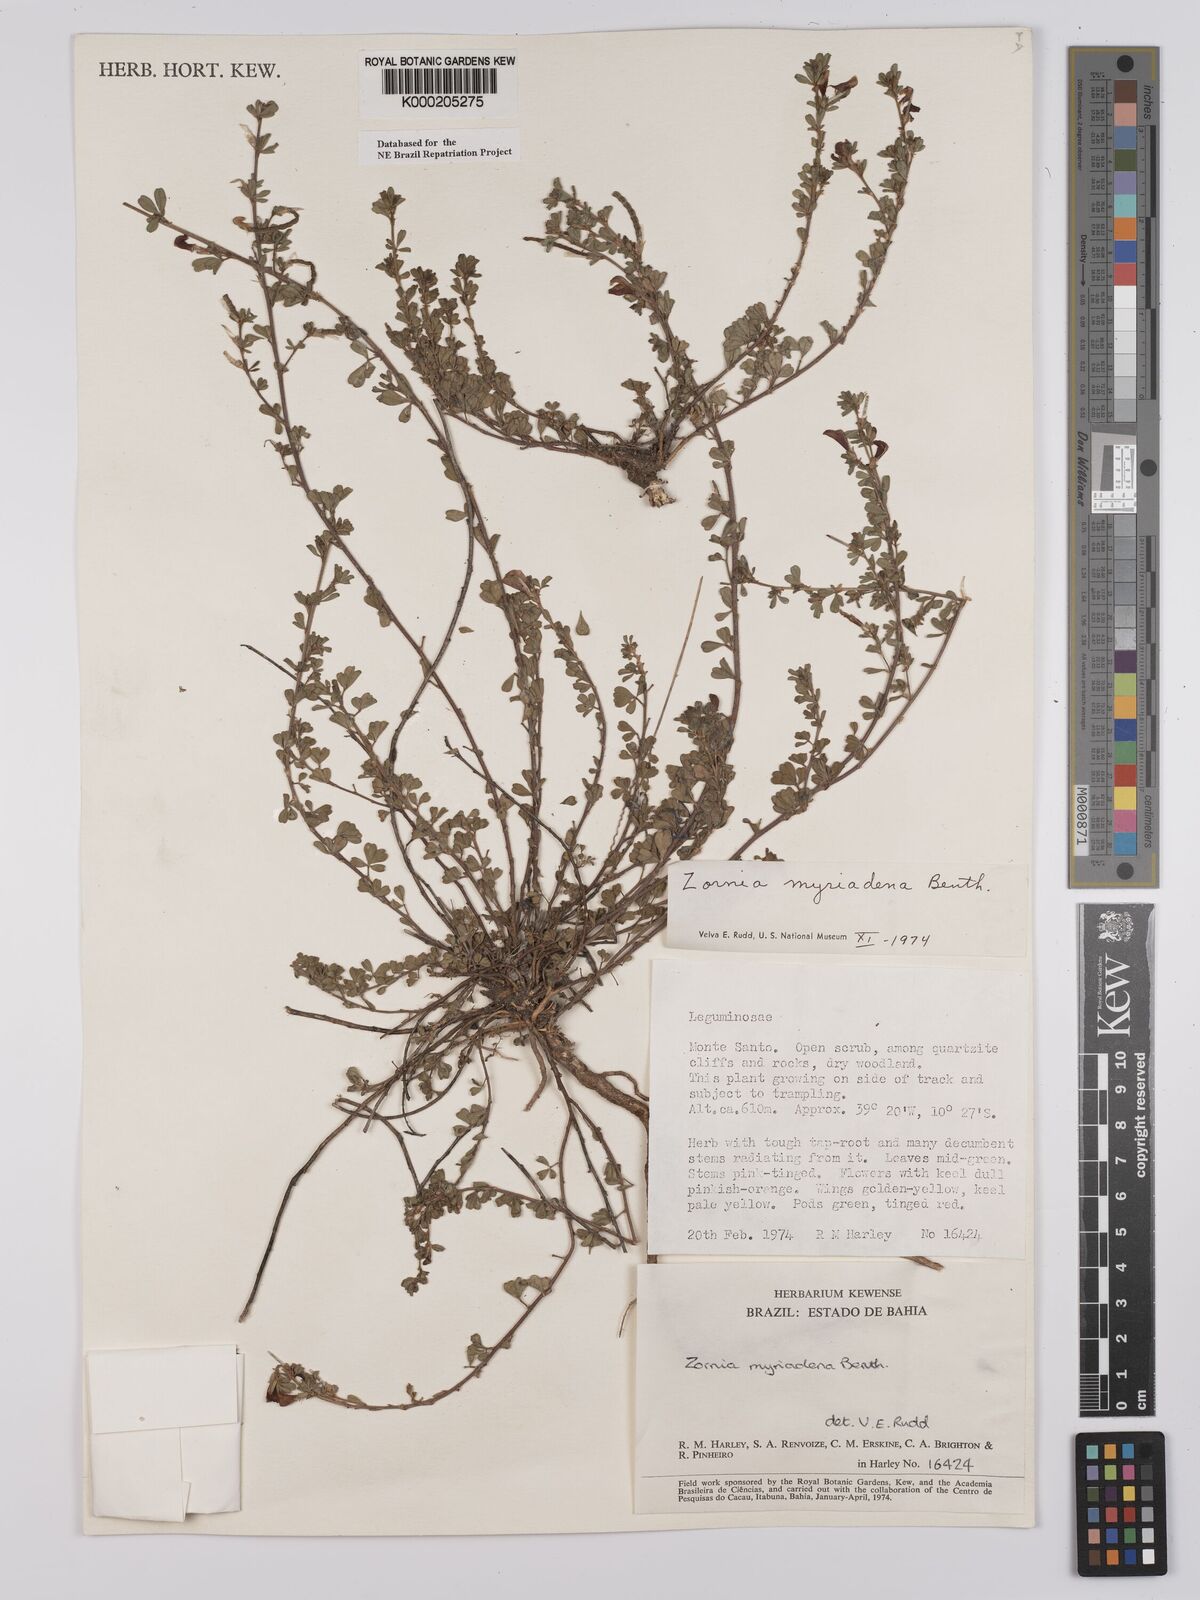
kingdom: Plantae
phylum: Tracheophyta
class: Magnoliopsida
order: Fabales
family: Fabaceae
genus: Zornia
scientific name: Zornia myriadena
